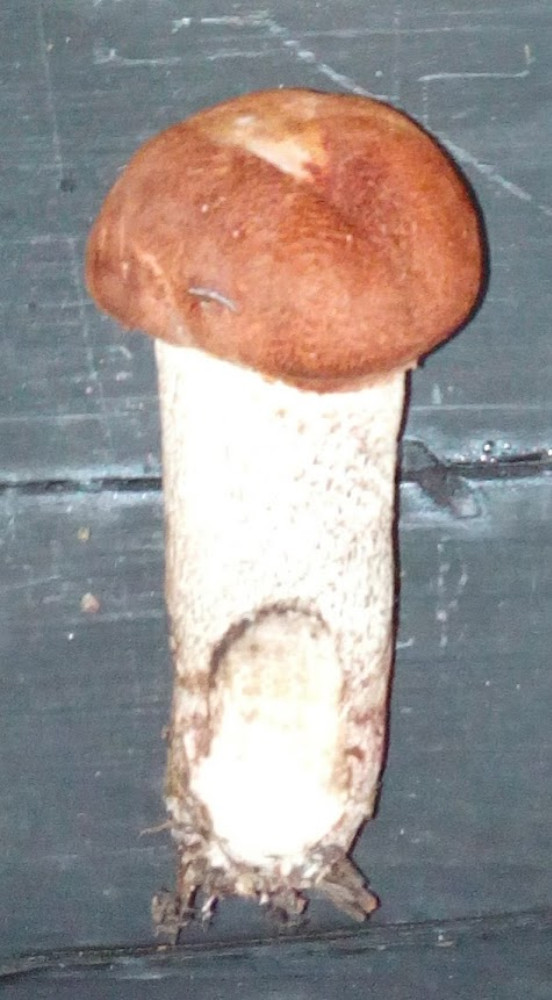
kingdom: Fungi
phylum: Basidiomycota
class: Agaricomycetes
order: Boletales
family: Boletaceae
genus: Leccinum
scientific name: Leccinum vulpinum
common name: fyrre-skælrørhat
